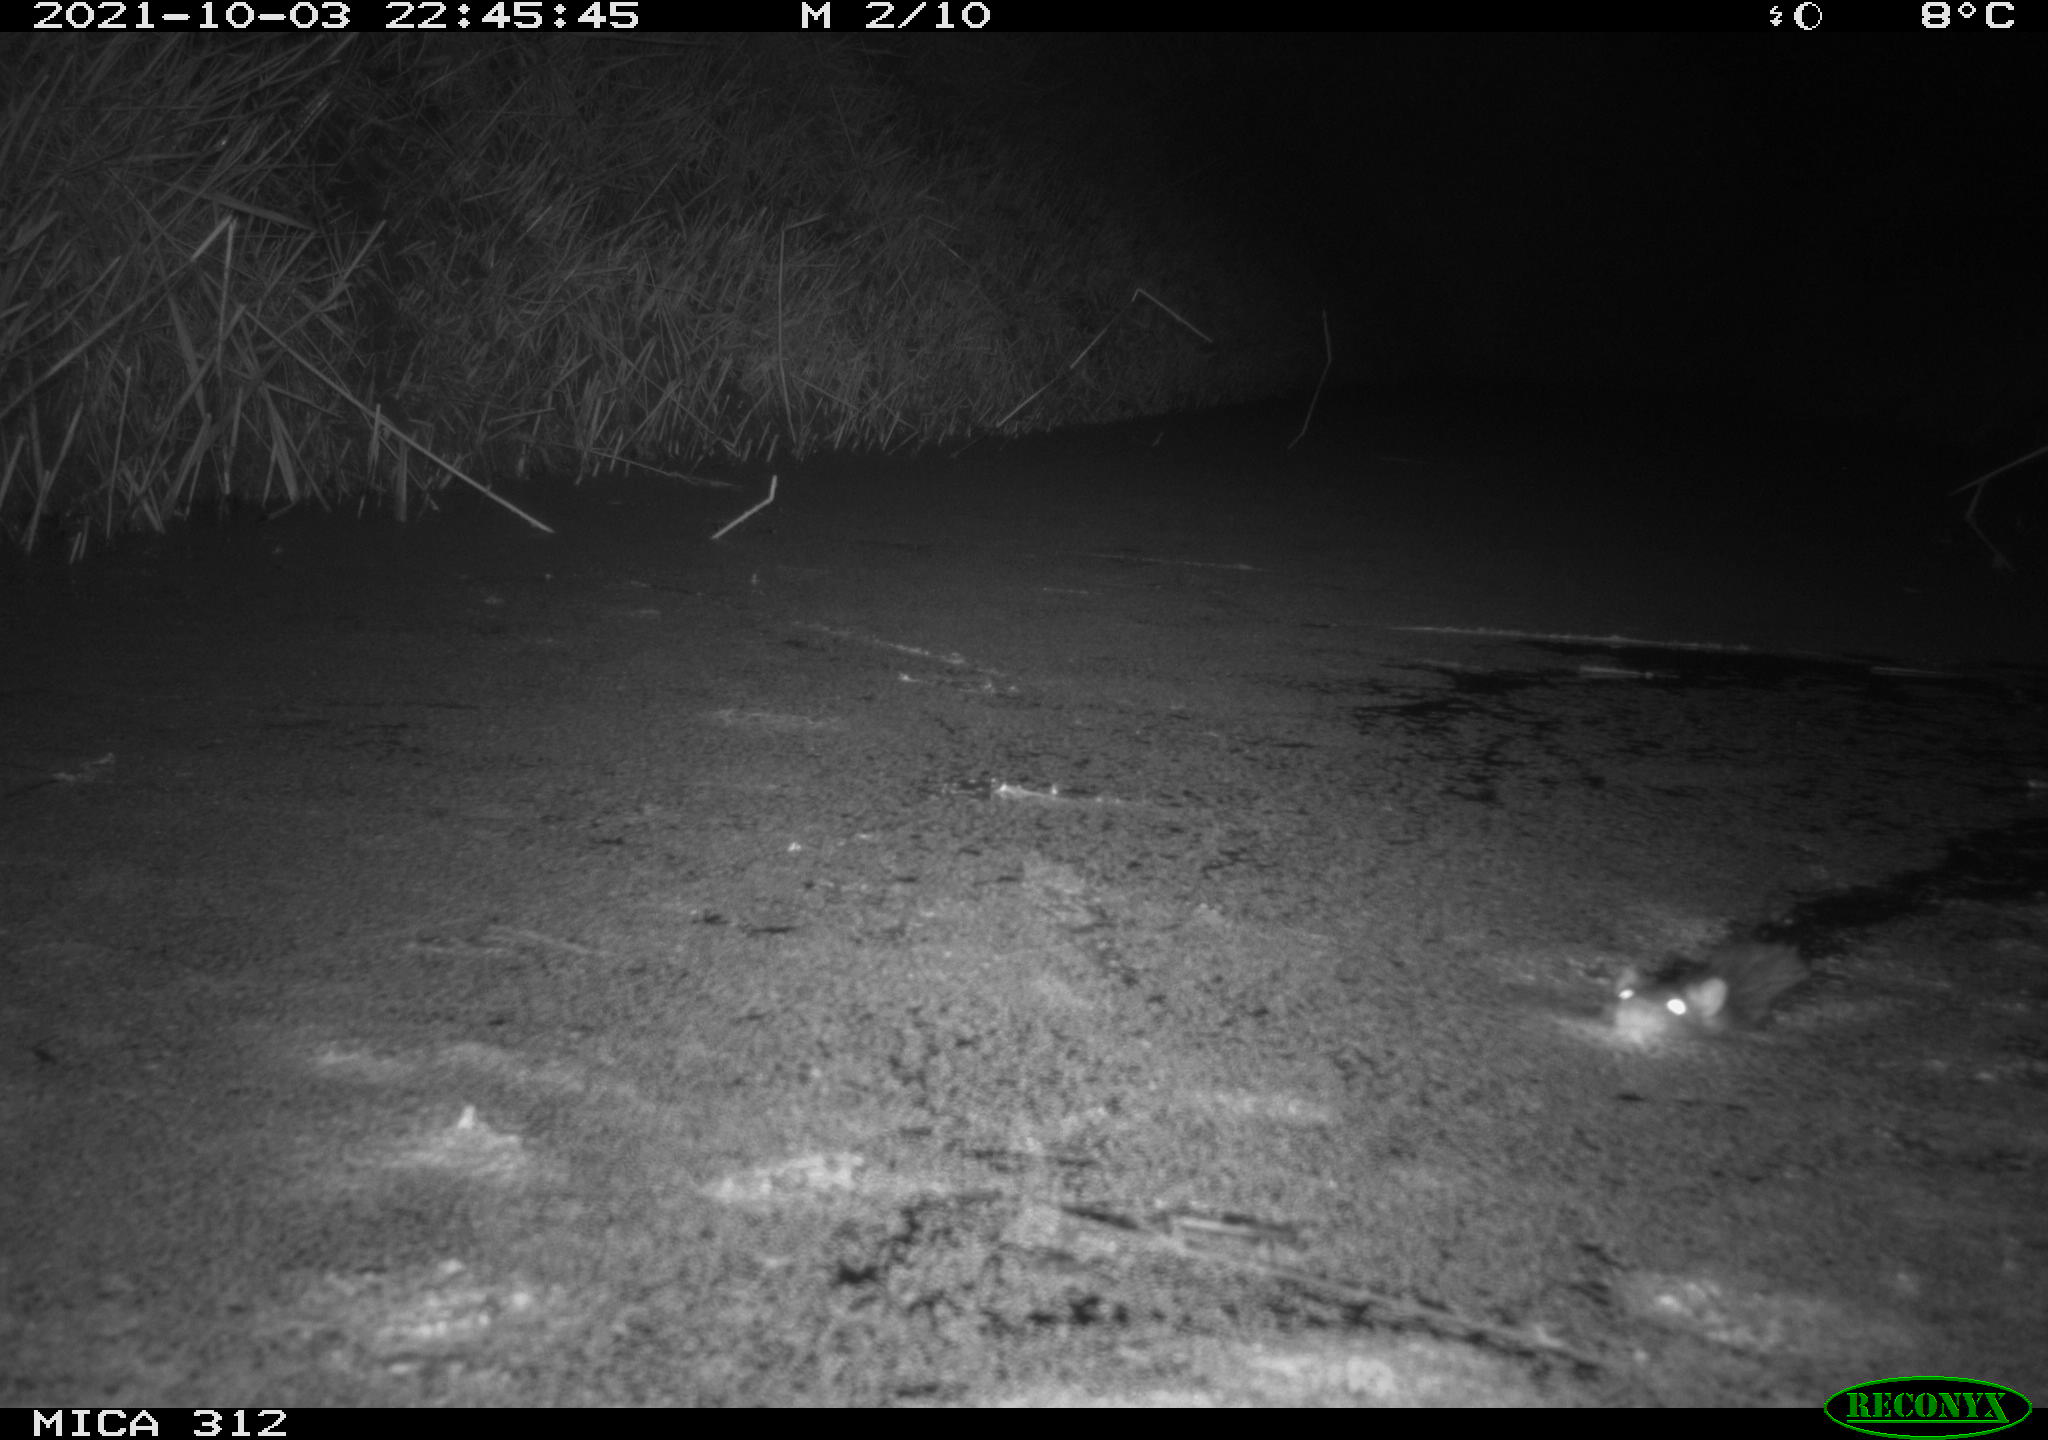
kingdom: Animalia
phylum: Chordata
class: Mammalia
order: Rodentia
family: Muridae
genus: Rattus
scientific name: Rattus norvegicus
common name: Brown rat
